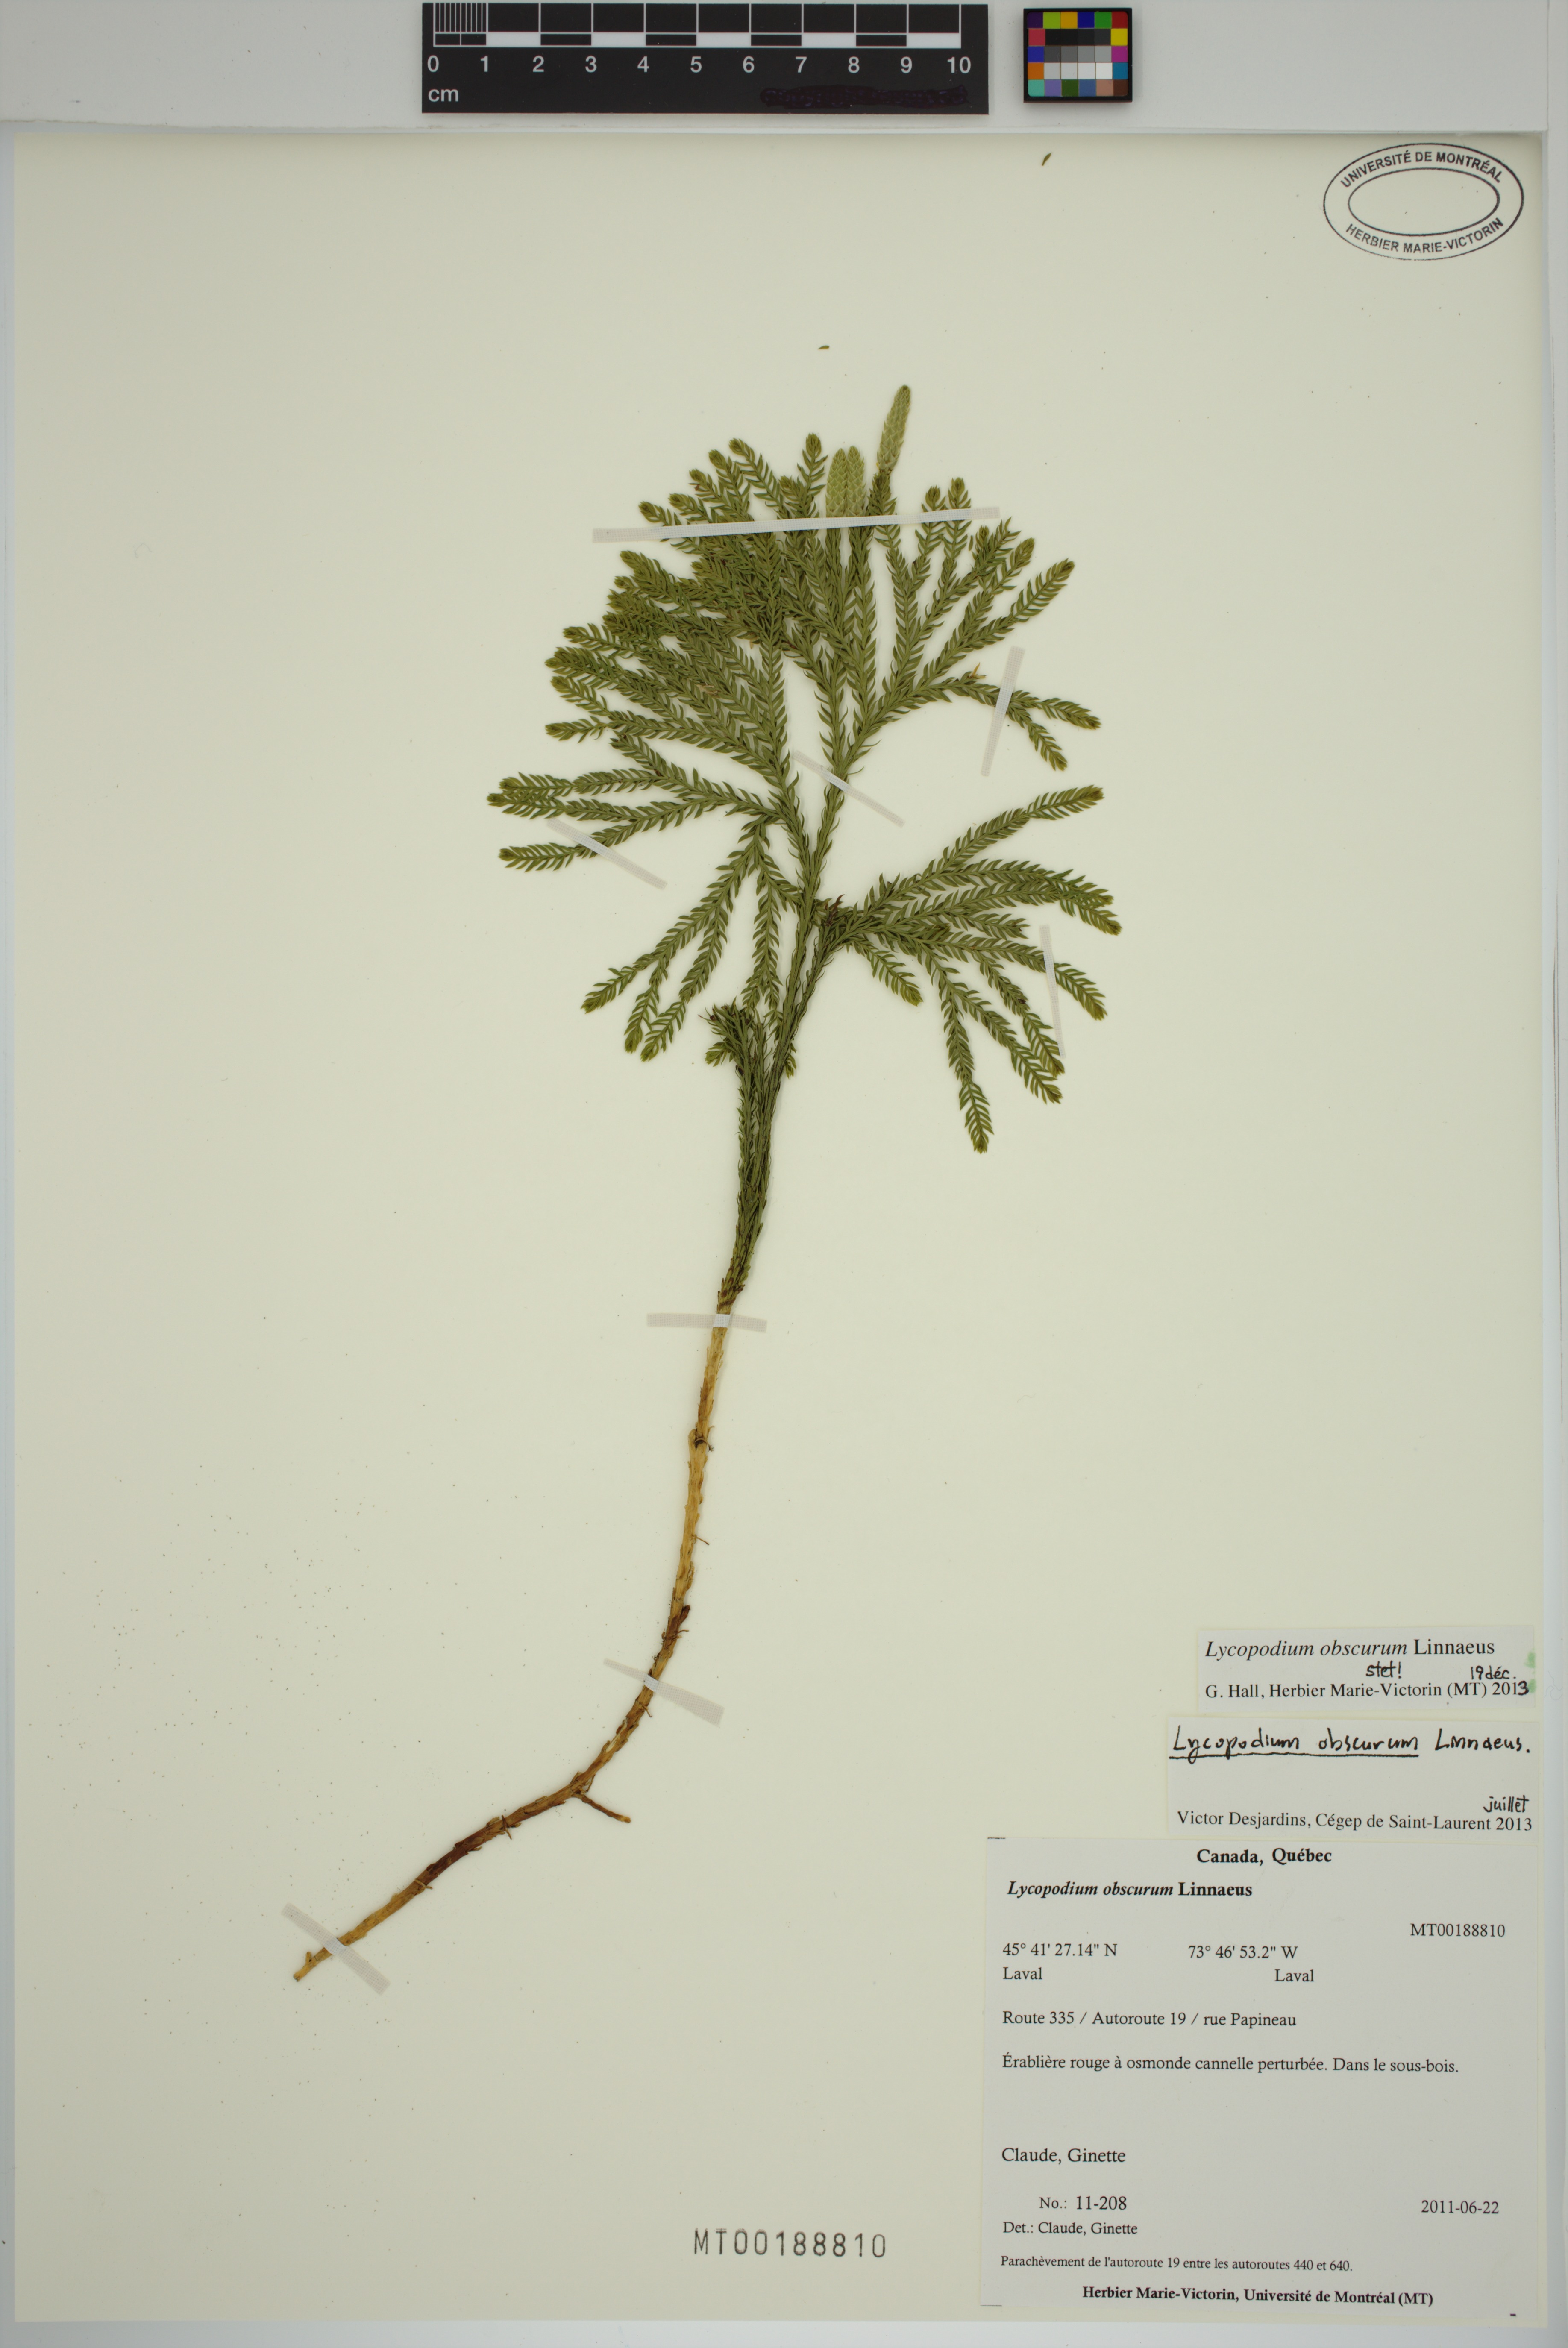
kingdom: Plantae
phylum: Tracheophyta
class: Lycopodiopsida
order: Lycopodiales
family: Lycopodiaceae
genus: Dendrolycopodium
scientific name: Dendrolycopodium obscurum
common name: Common ground-pine
